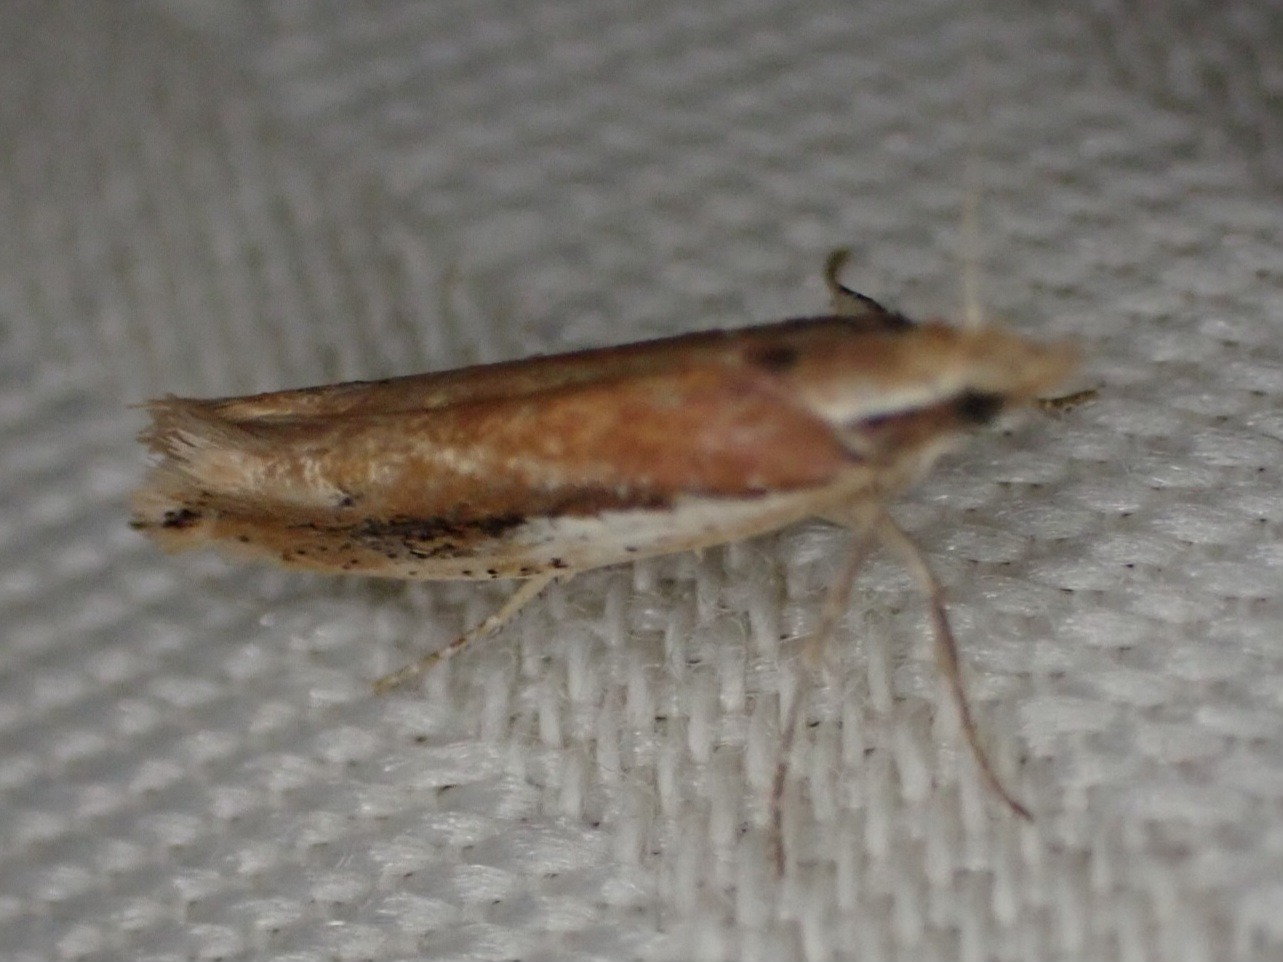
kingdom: Animalia
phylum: Arthropoda
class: Insecta
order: Lepidoptera
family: Ypsolophidae
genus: Ypsolopha
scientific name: Ypsolopha parenthesella
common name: Hvidliniet møl
